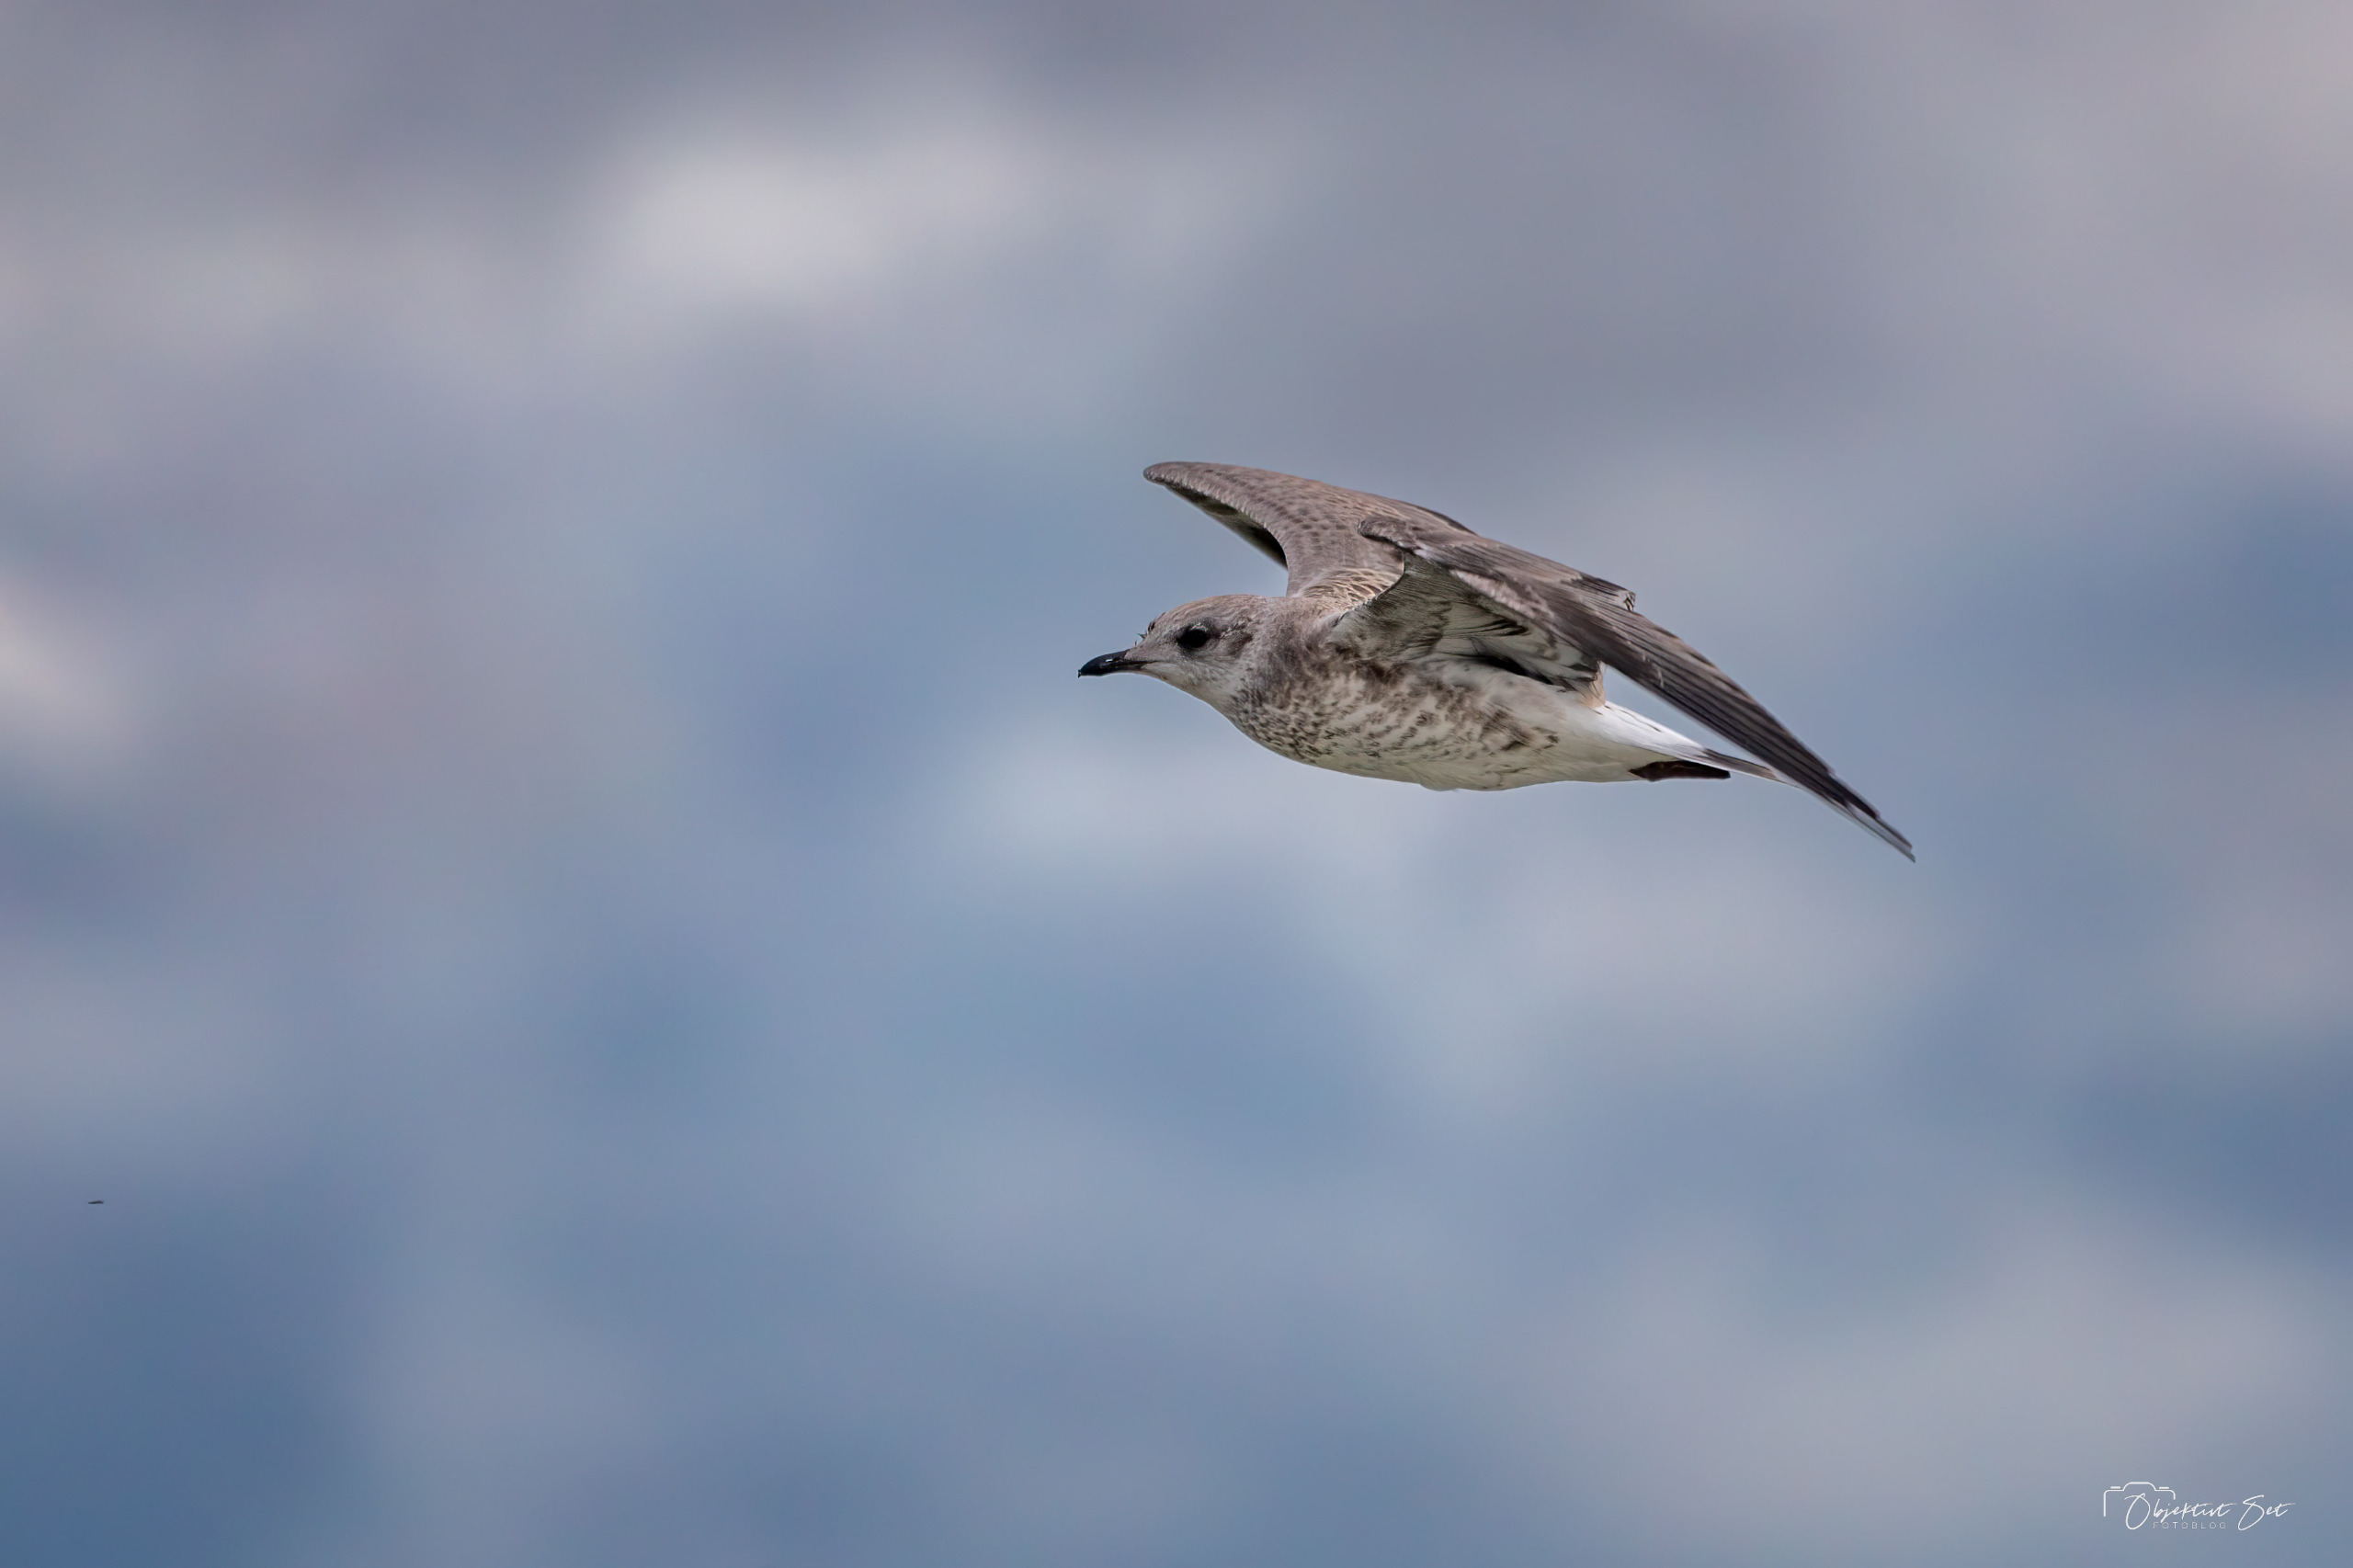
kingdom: Animalia
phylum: Chordata
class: Aves
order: Charadriiformes
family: Laridae
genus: Larus
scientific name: Larus canus
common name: Stormmåge
